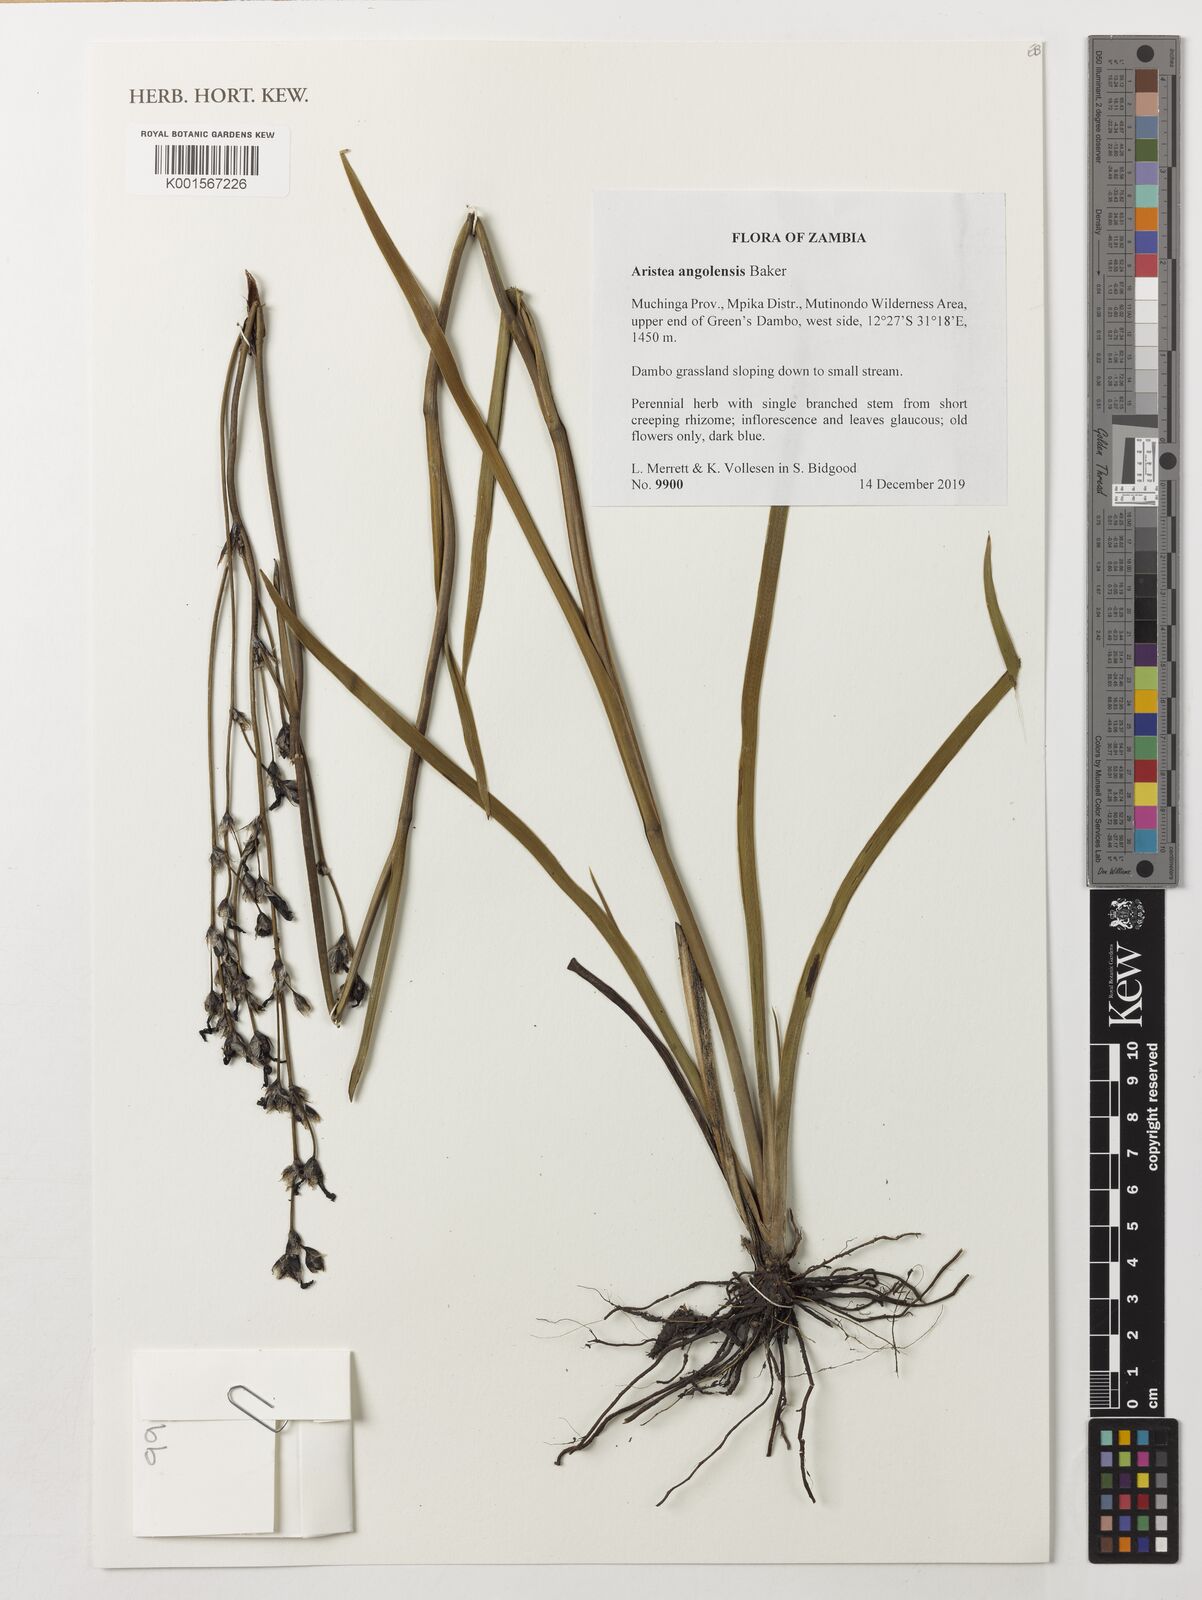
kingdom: Plantae
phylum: Tracheophyta
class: Liliopsida
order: Asparagales
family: Iridaceae
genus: Aristea
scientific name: Aristea angolensis
